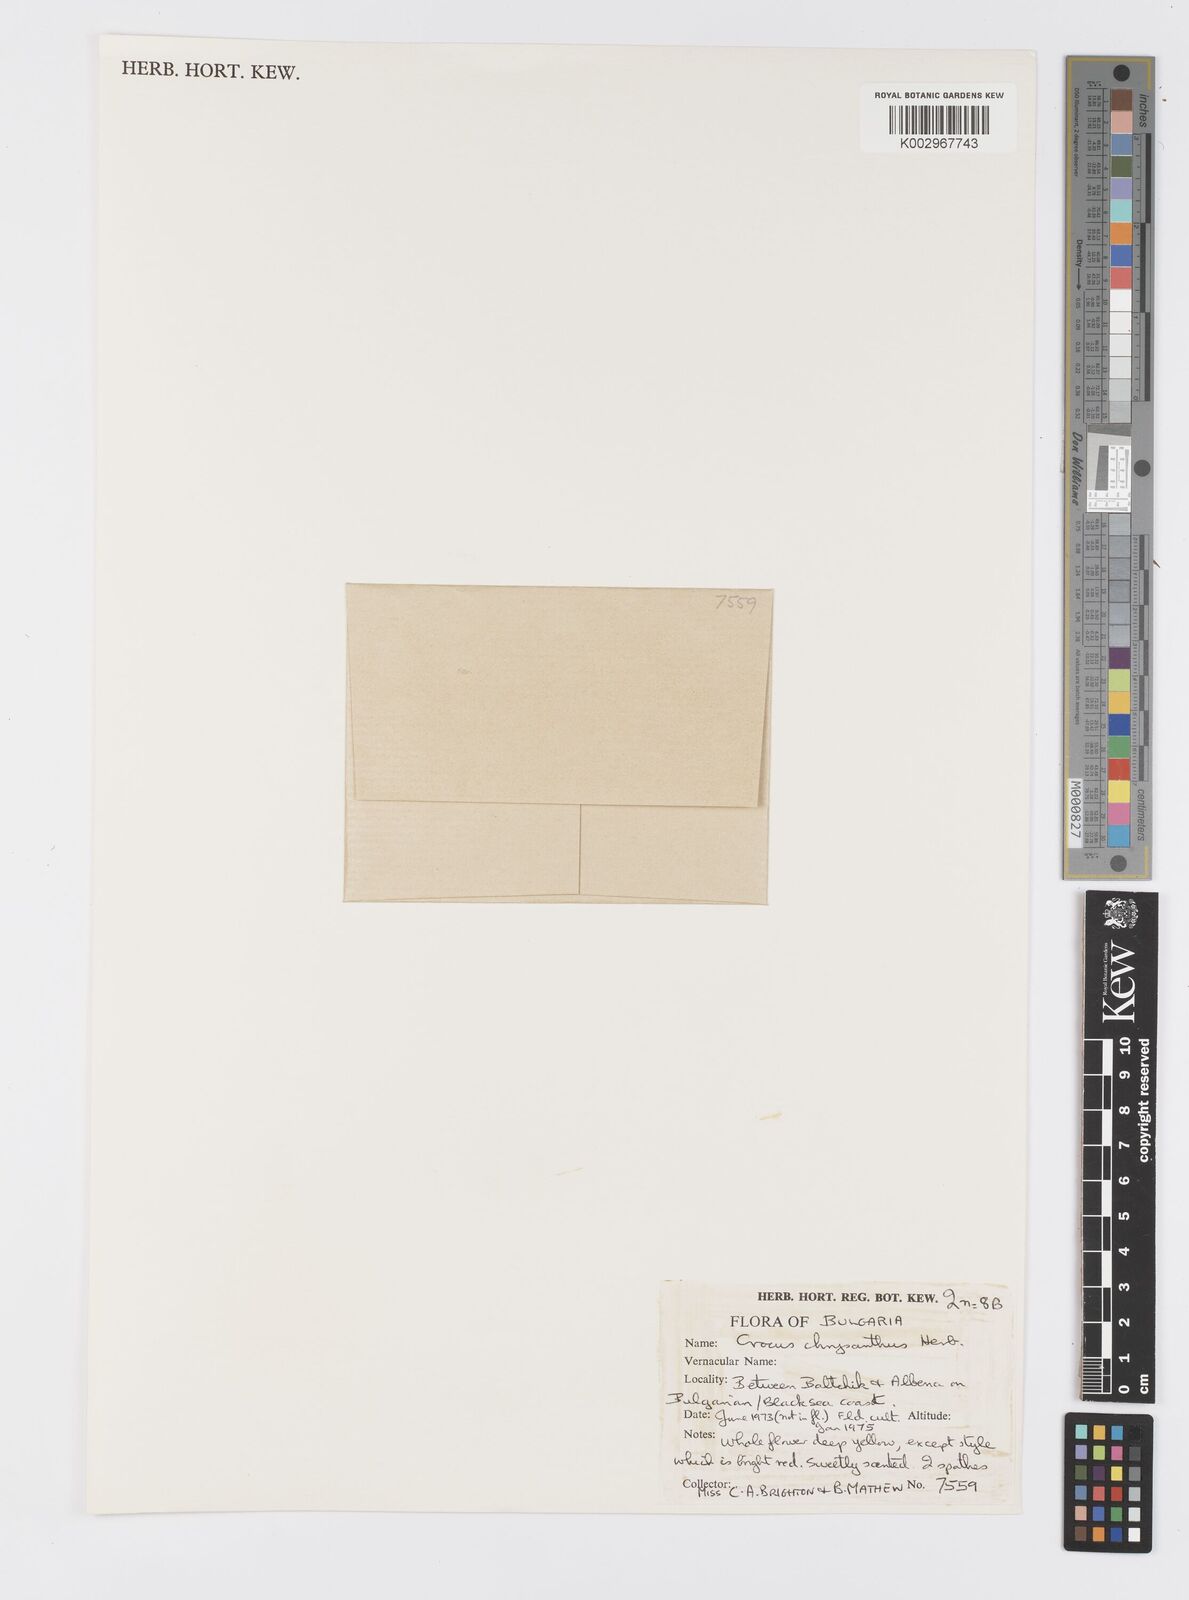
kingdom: Plantae
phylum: Tracheophyta
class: Liliopsida
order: Asparagales
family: Iridaceae
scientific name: Iridaceae
